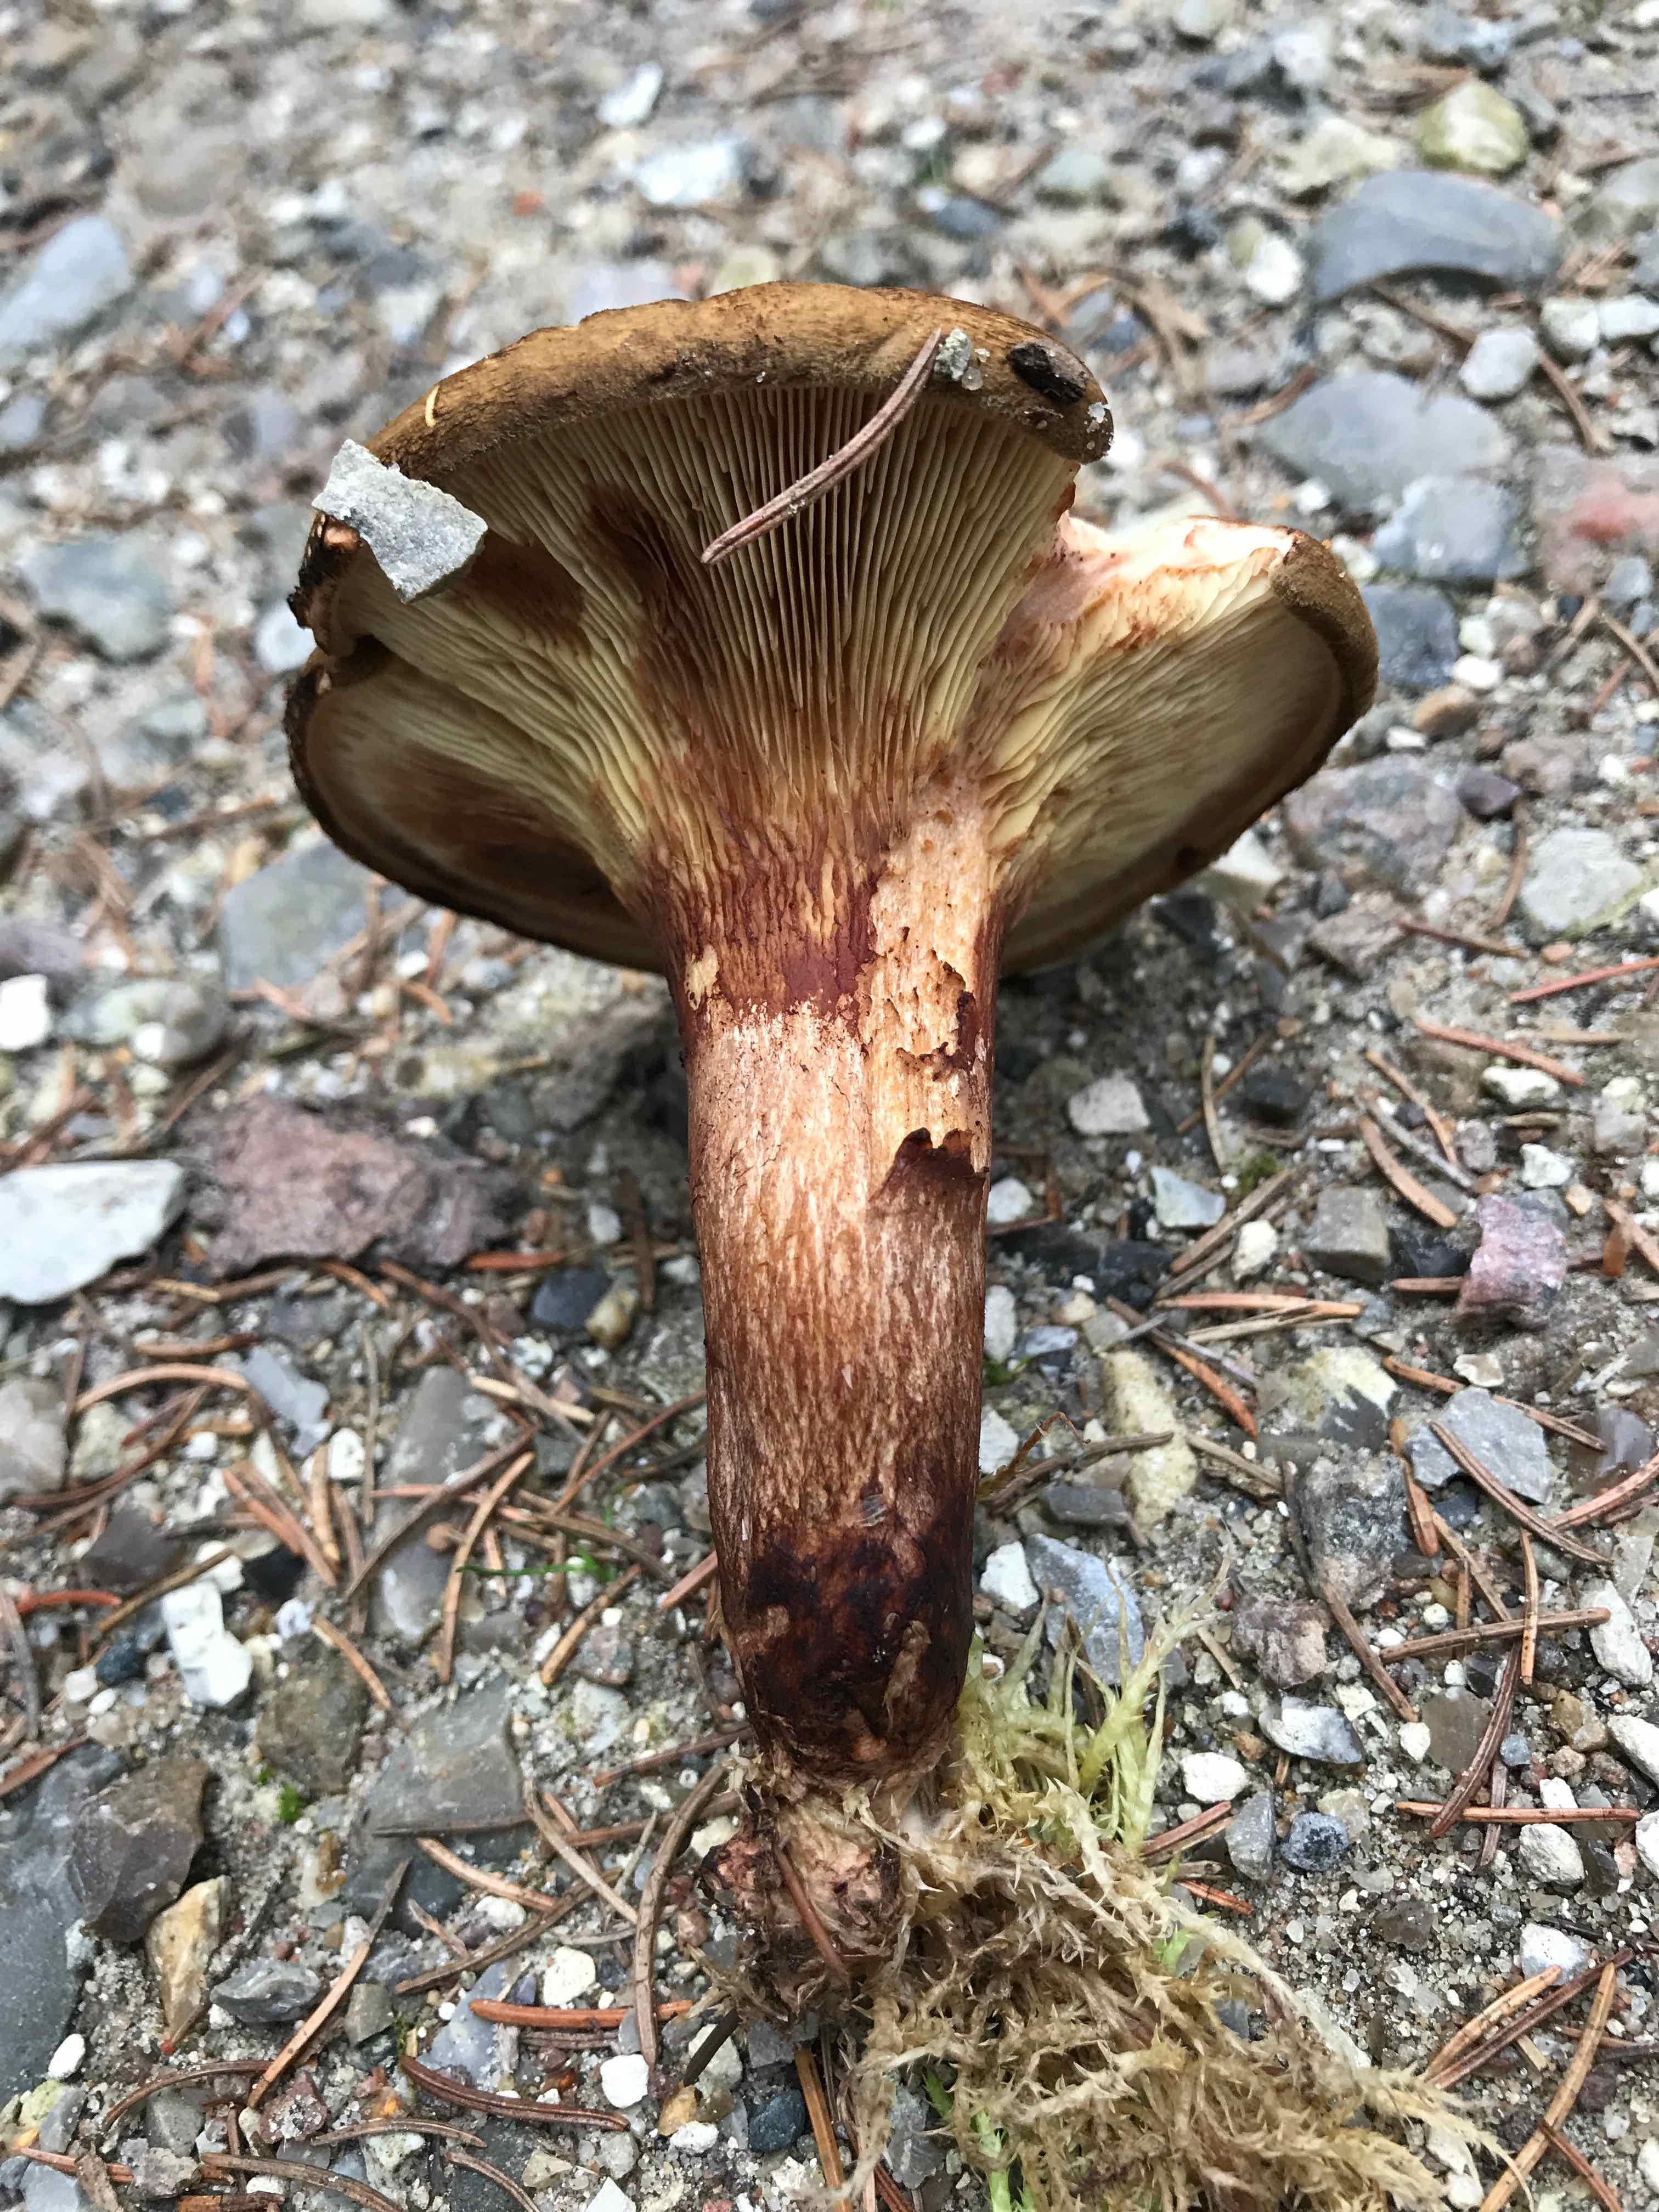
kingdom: Fungi
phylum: Basidiomycota
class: Agaricomycetes
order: Boletales
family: Paxillaceae
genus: Paxillus
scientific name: Paxillus
